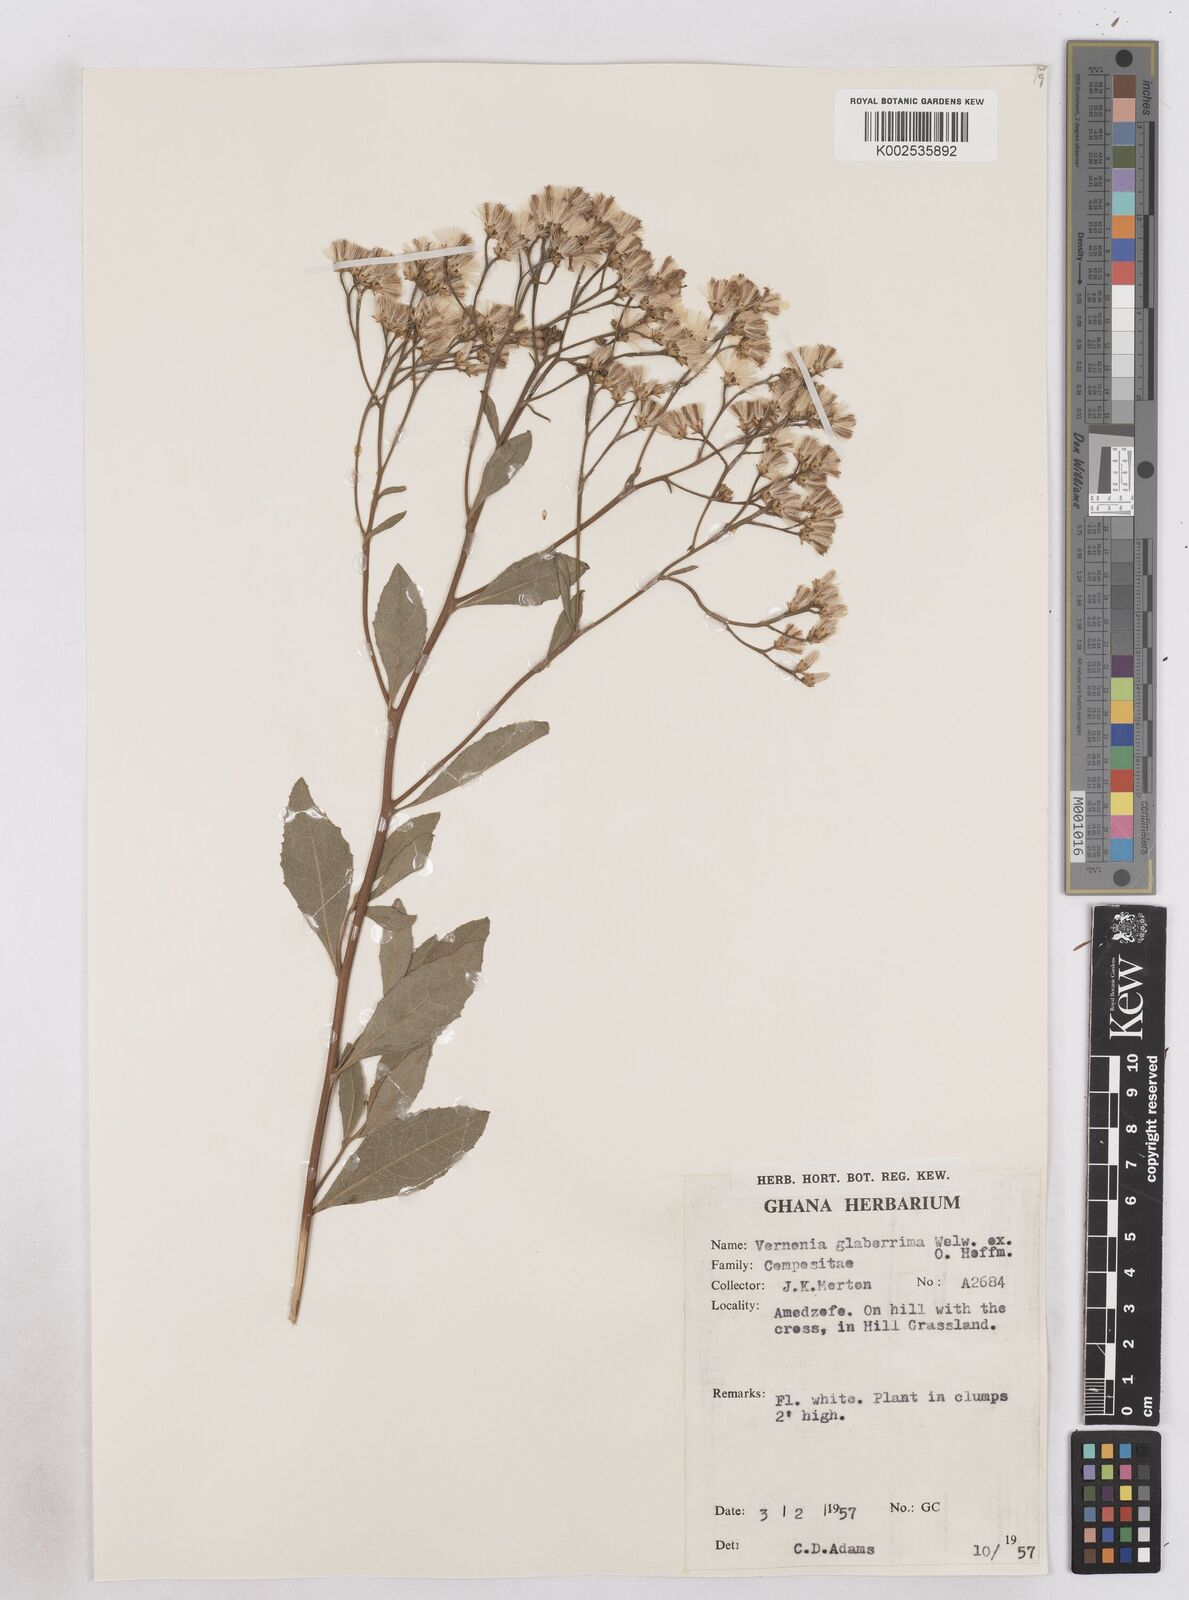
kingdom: Plantae
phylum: Tracheophyta
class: Magnoliopsida
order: Asterales
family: Asteraceae
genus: Gymnanthemum
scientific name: Gymnanthemum glaberrimum
